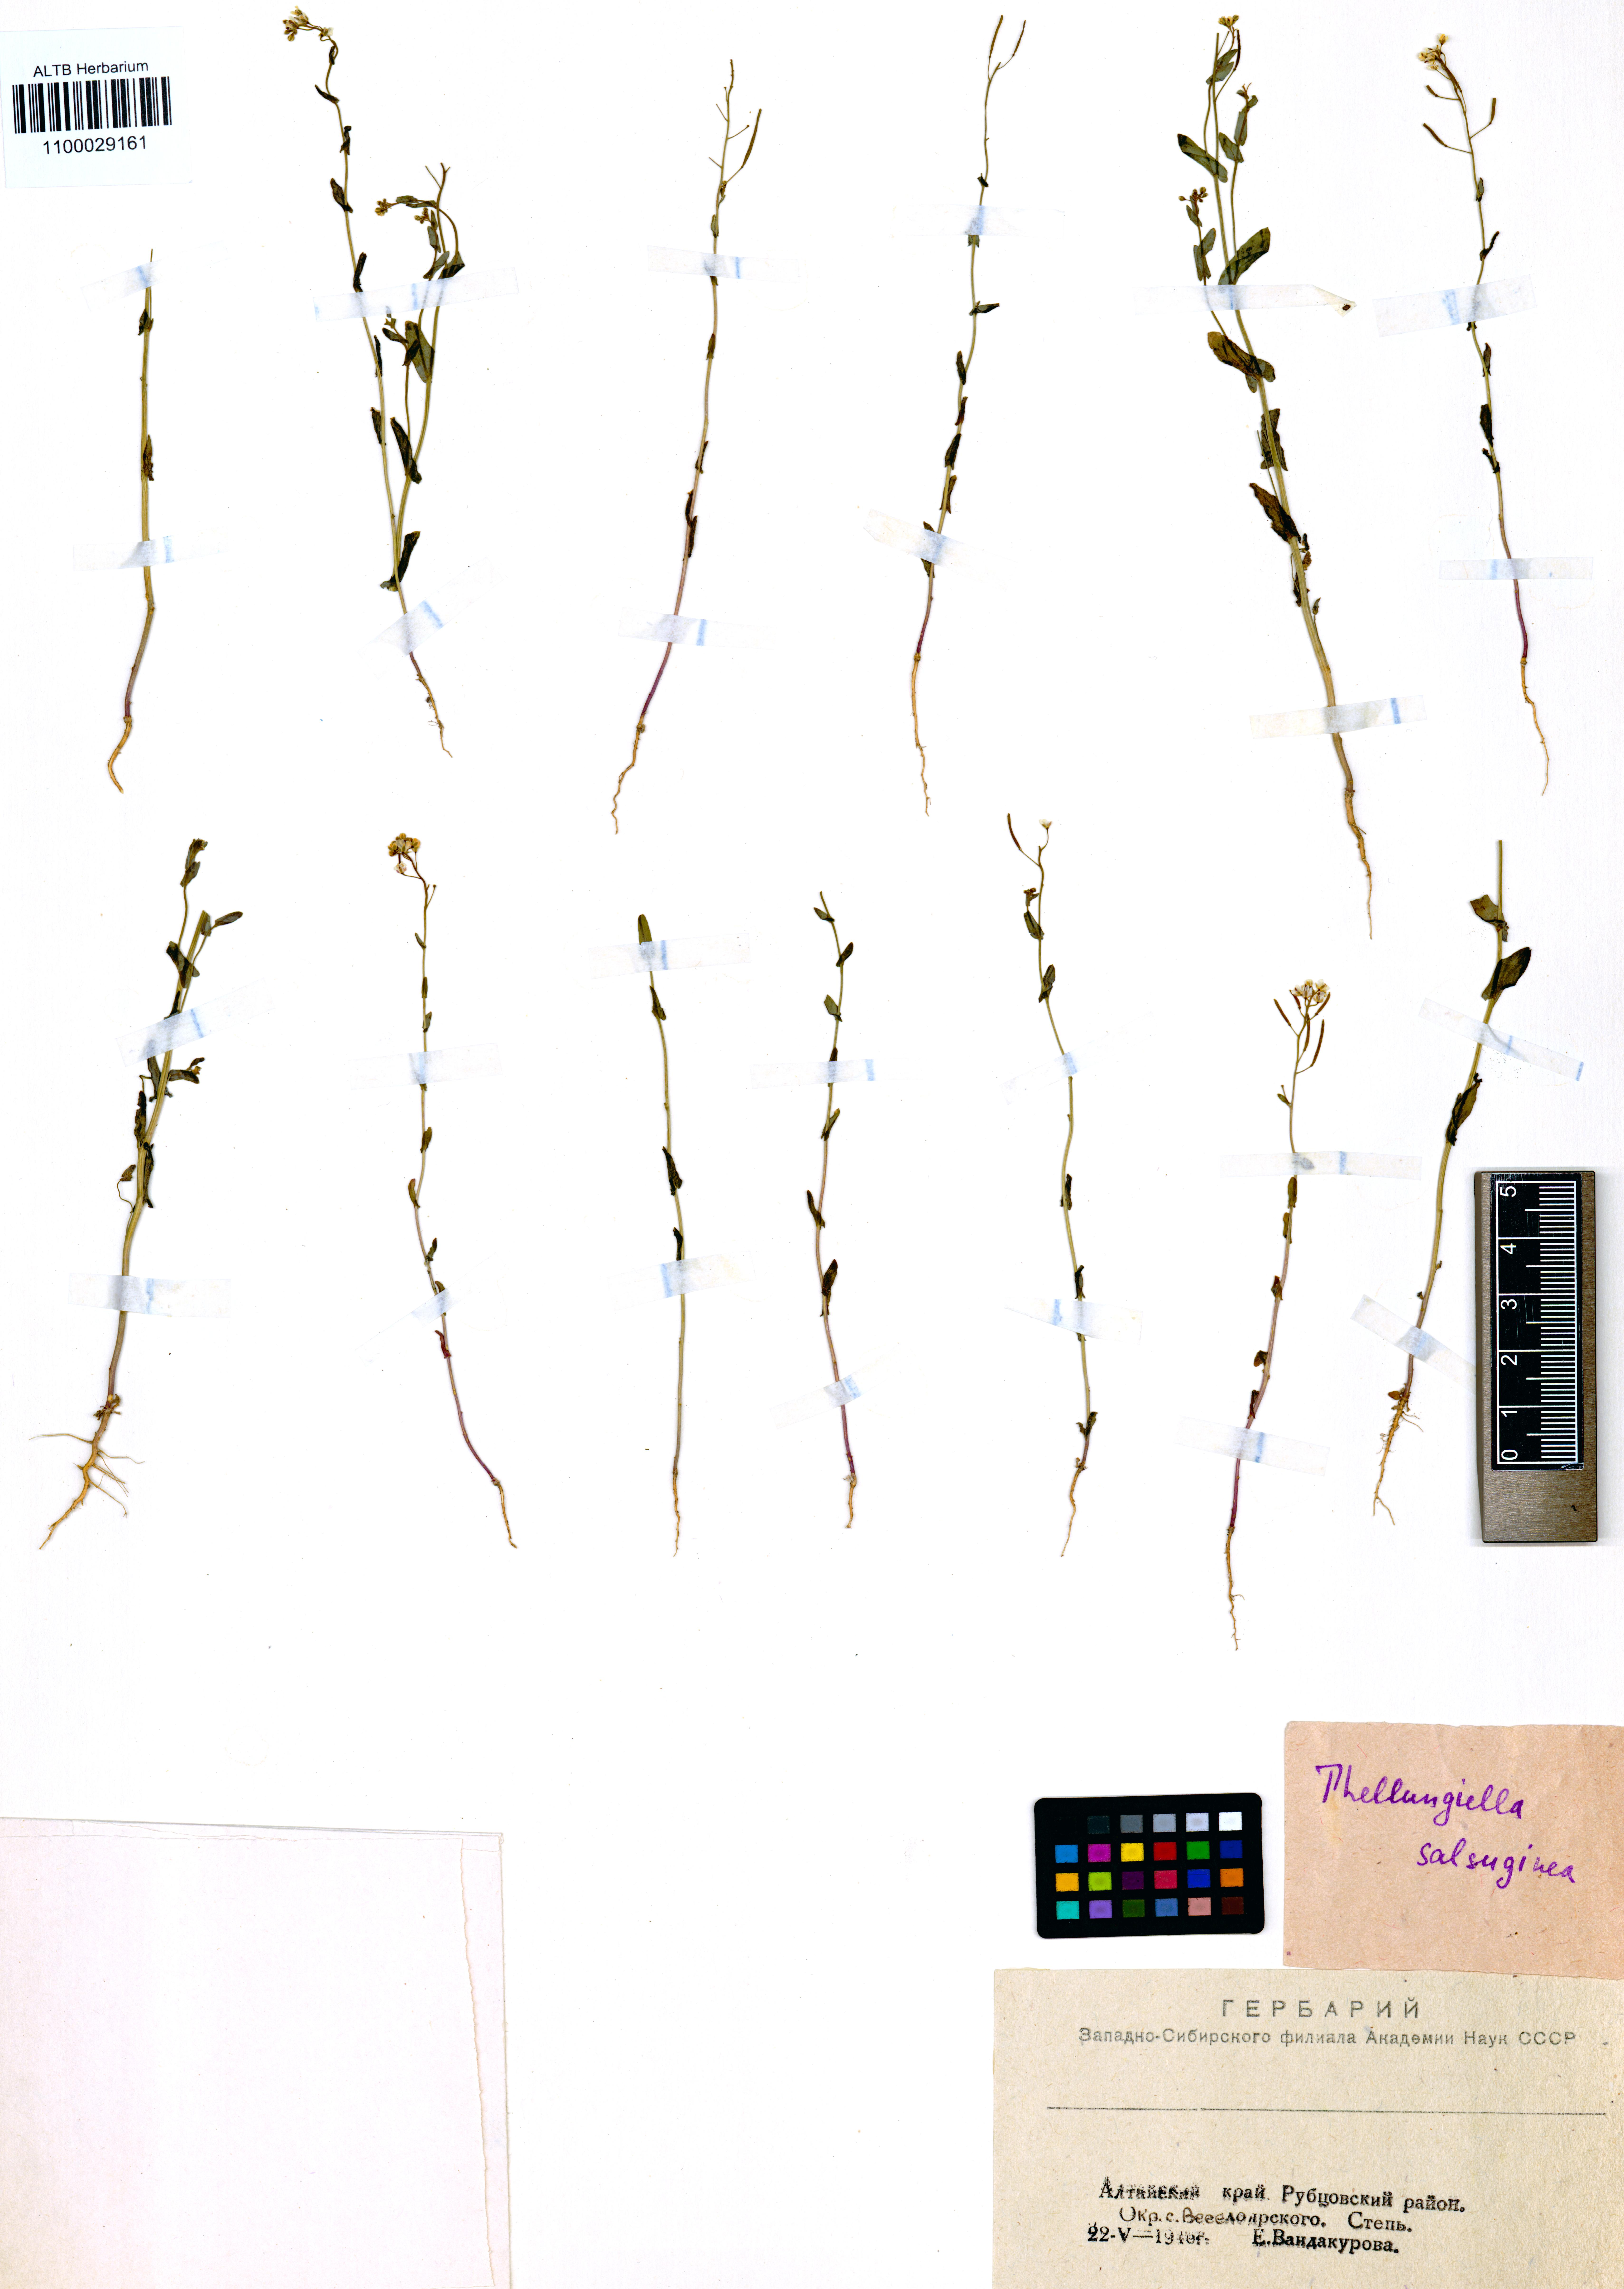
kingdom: Plantae
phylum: Tracheophyta
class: Magnoliopsida
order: Brassicales
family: Brassicaceae
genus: Eutrema
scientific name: Eutrema salsugineum
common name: Mouse-ear cress
